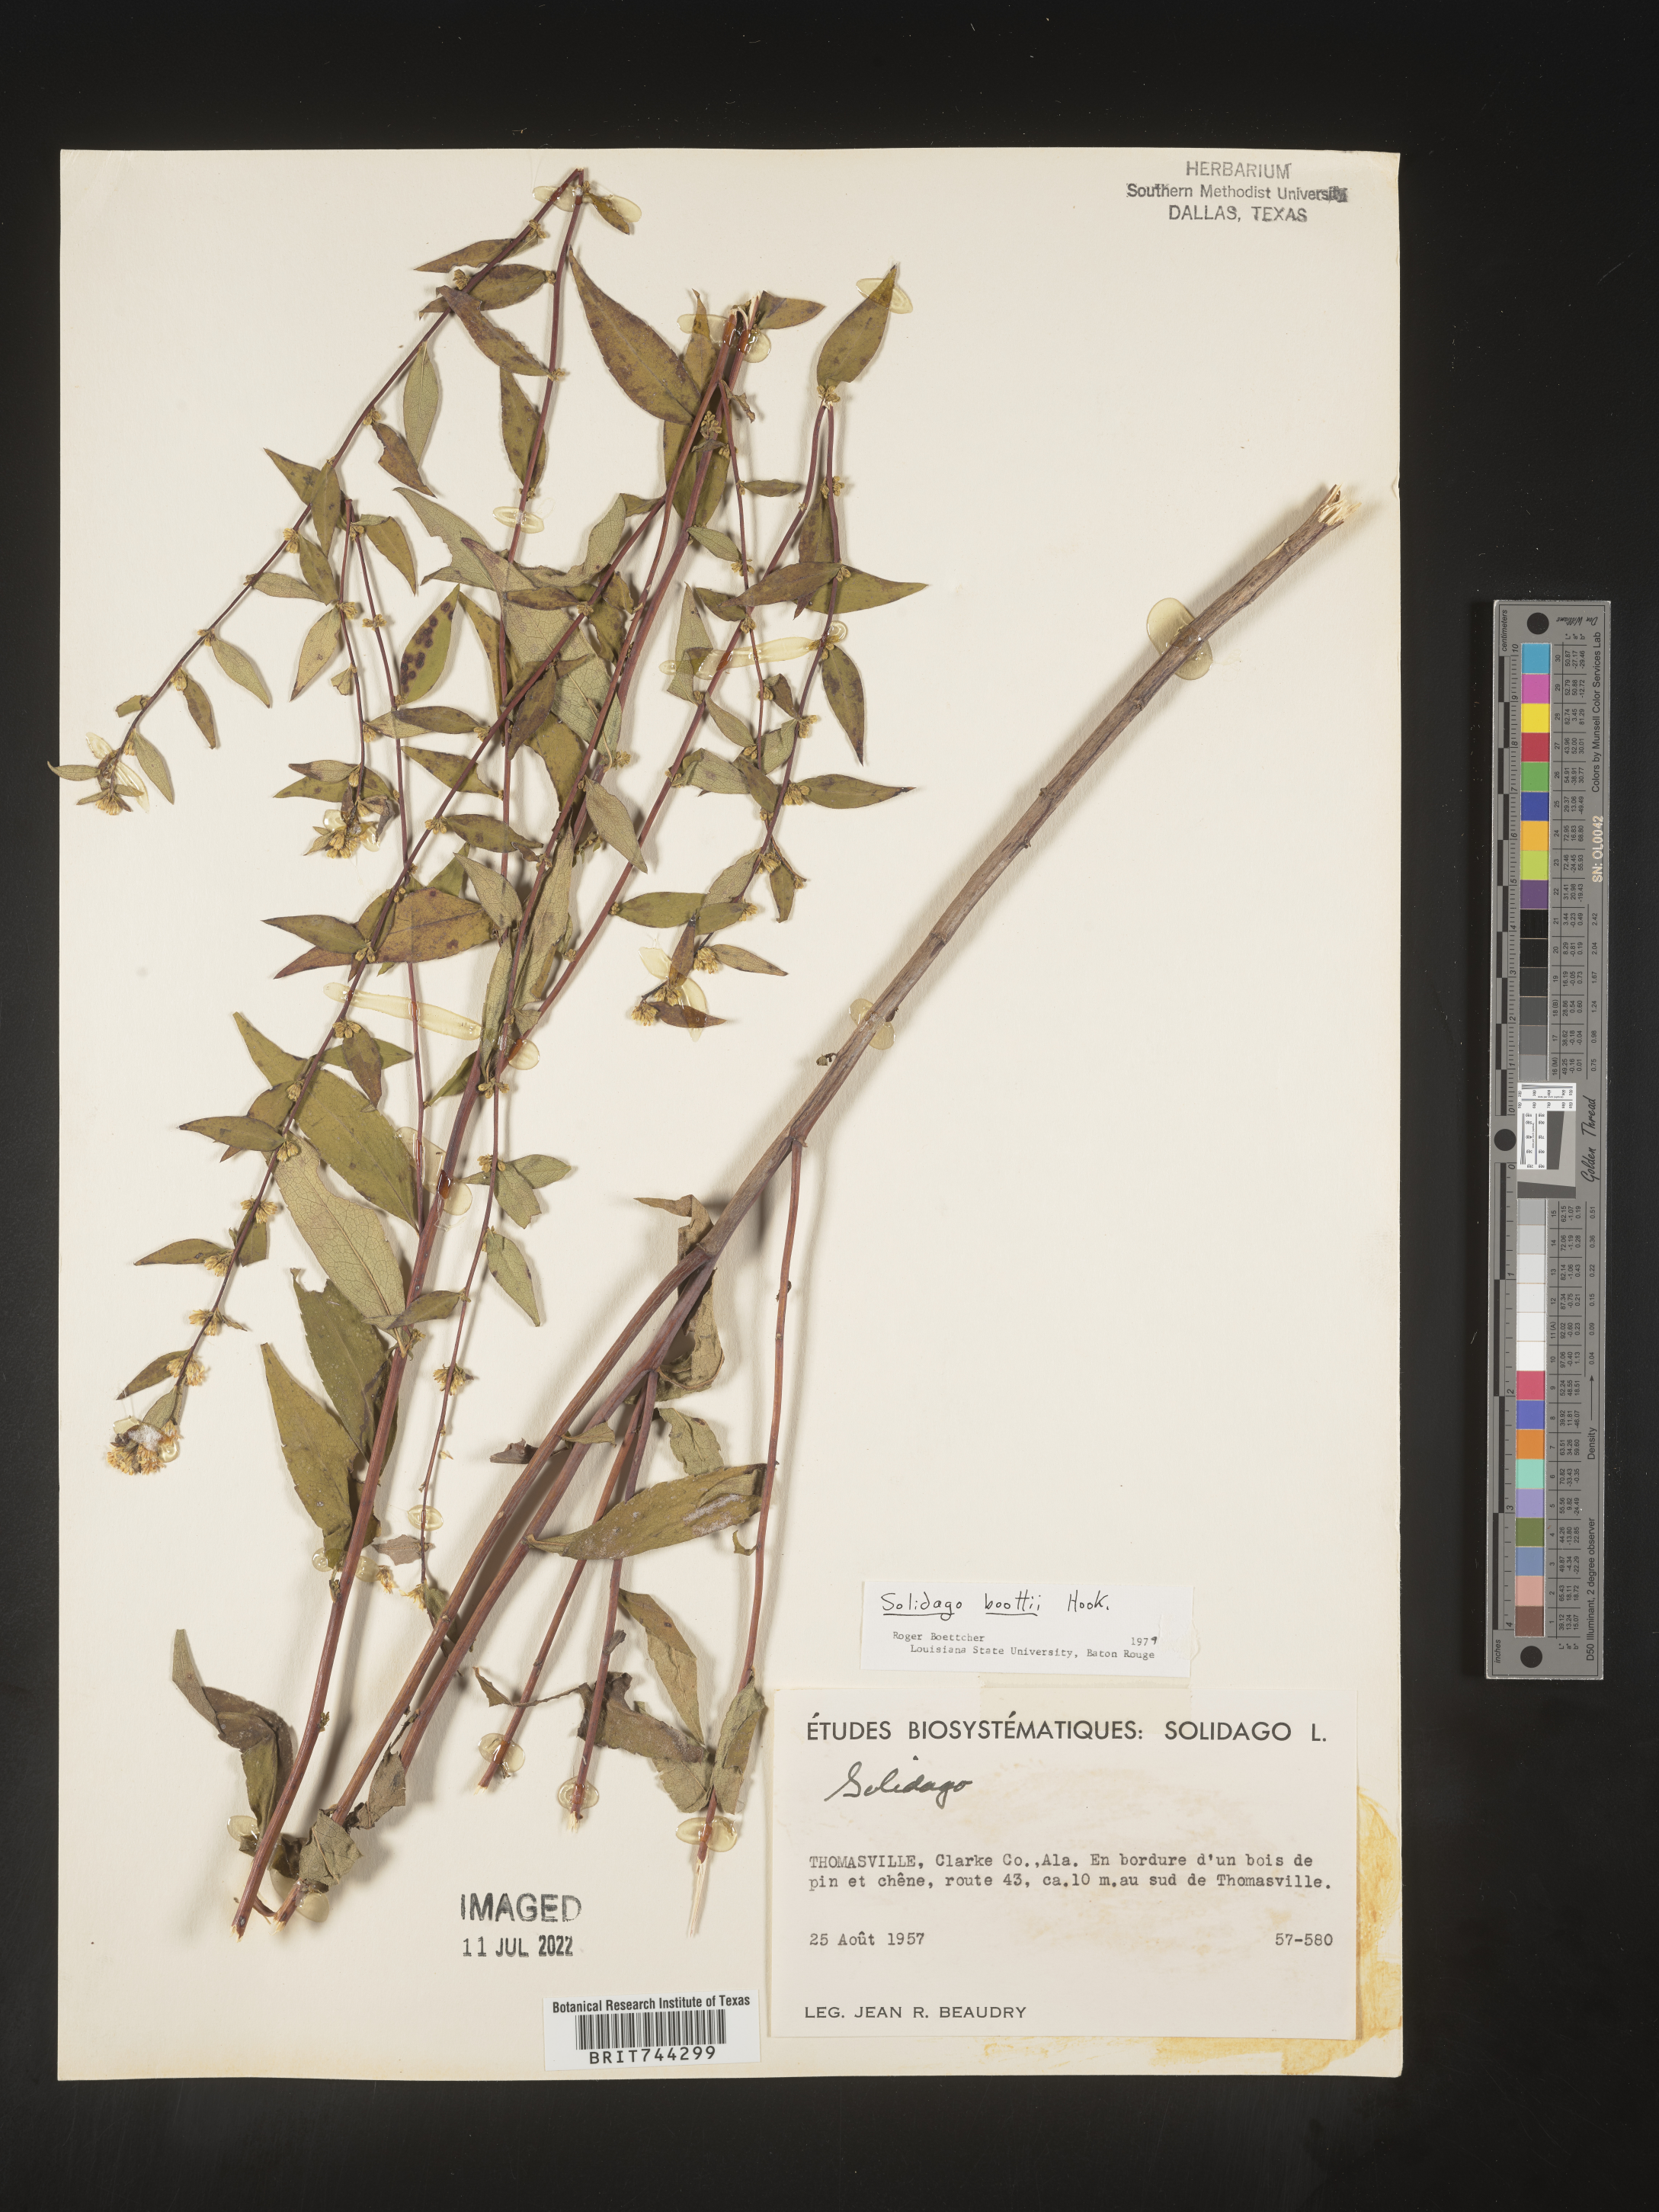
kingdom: Plantae
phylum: Tracheophyta
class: Magnoliopsida
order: Asterales
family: Asteraceae
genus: Solidago
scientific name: Solidago arguta
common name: Atlantic goldenrod
